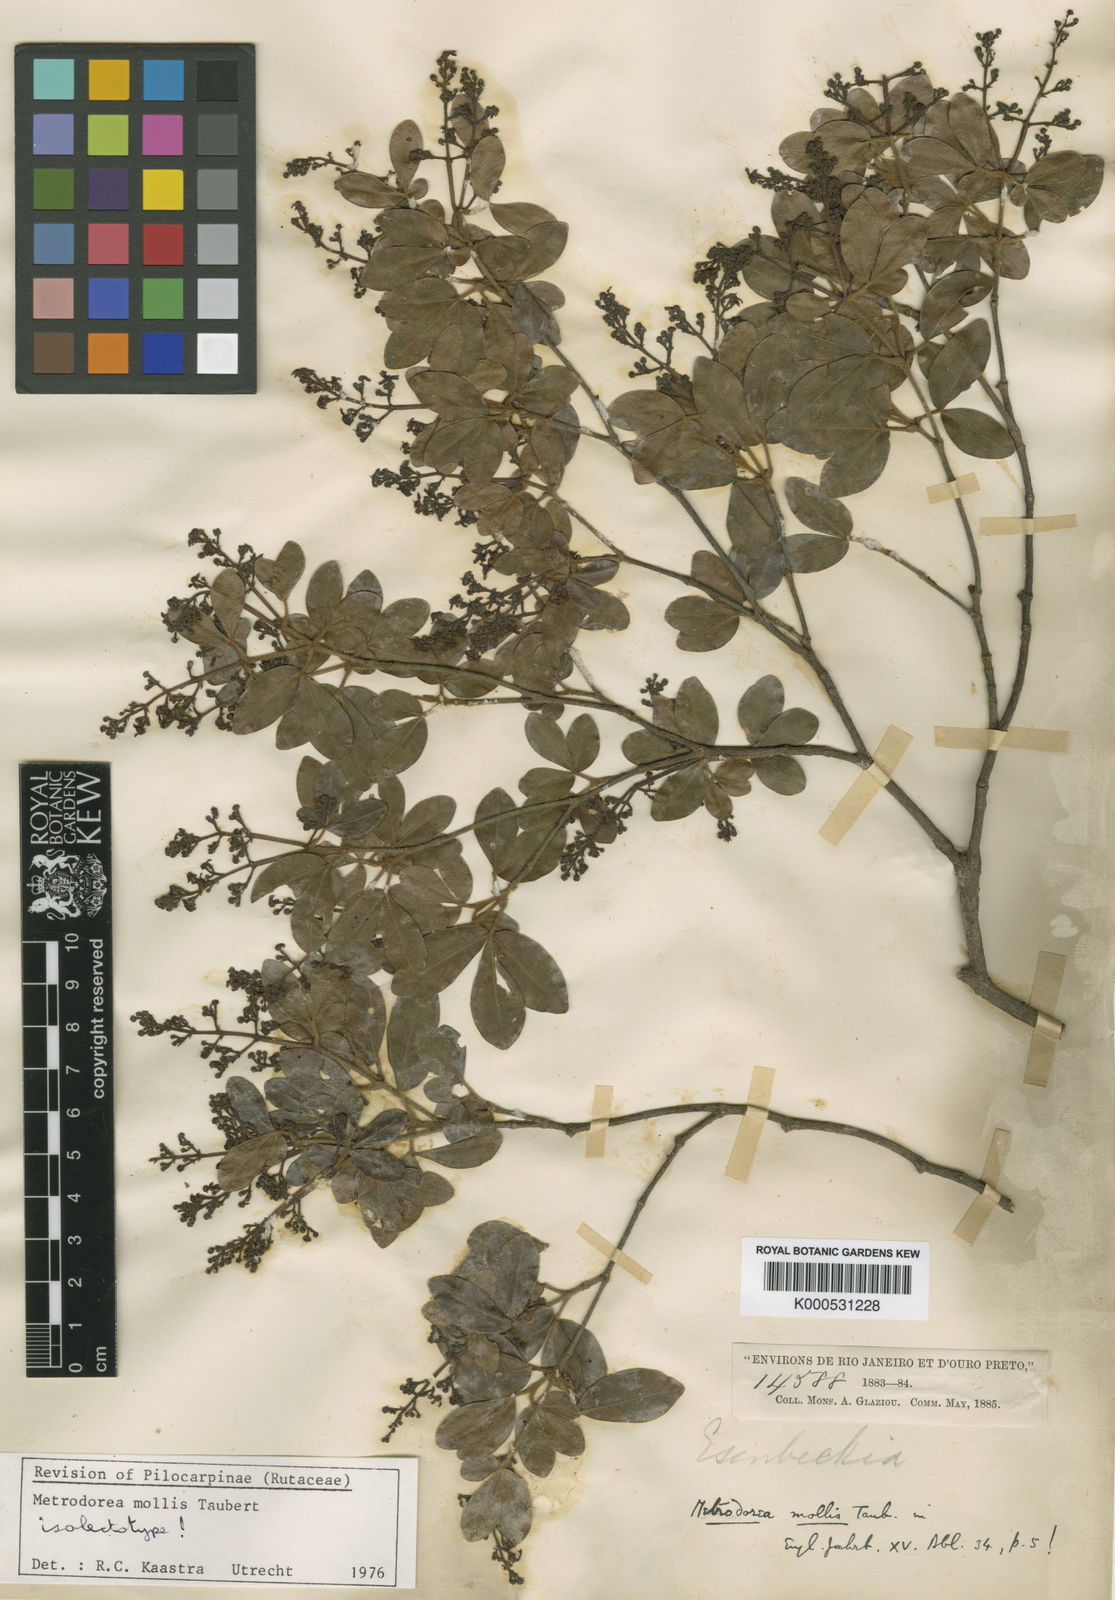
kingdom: Plantae
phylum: Tracheophyta
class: Magnoliopsida
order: Sapindales
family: Rutaceae
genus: Metrodorea
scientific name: Metrodorea mollis
